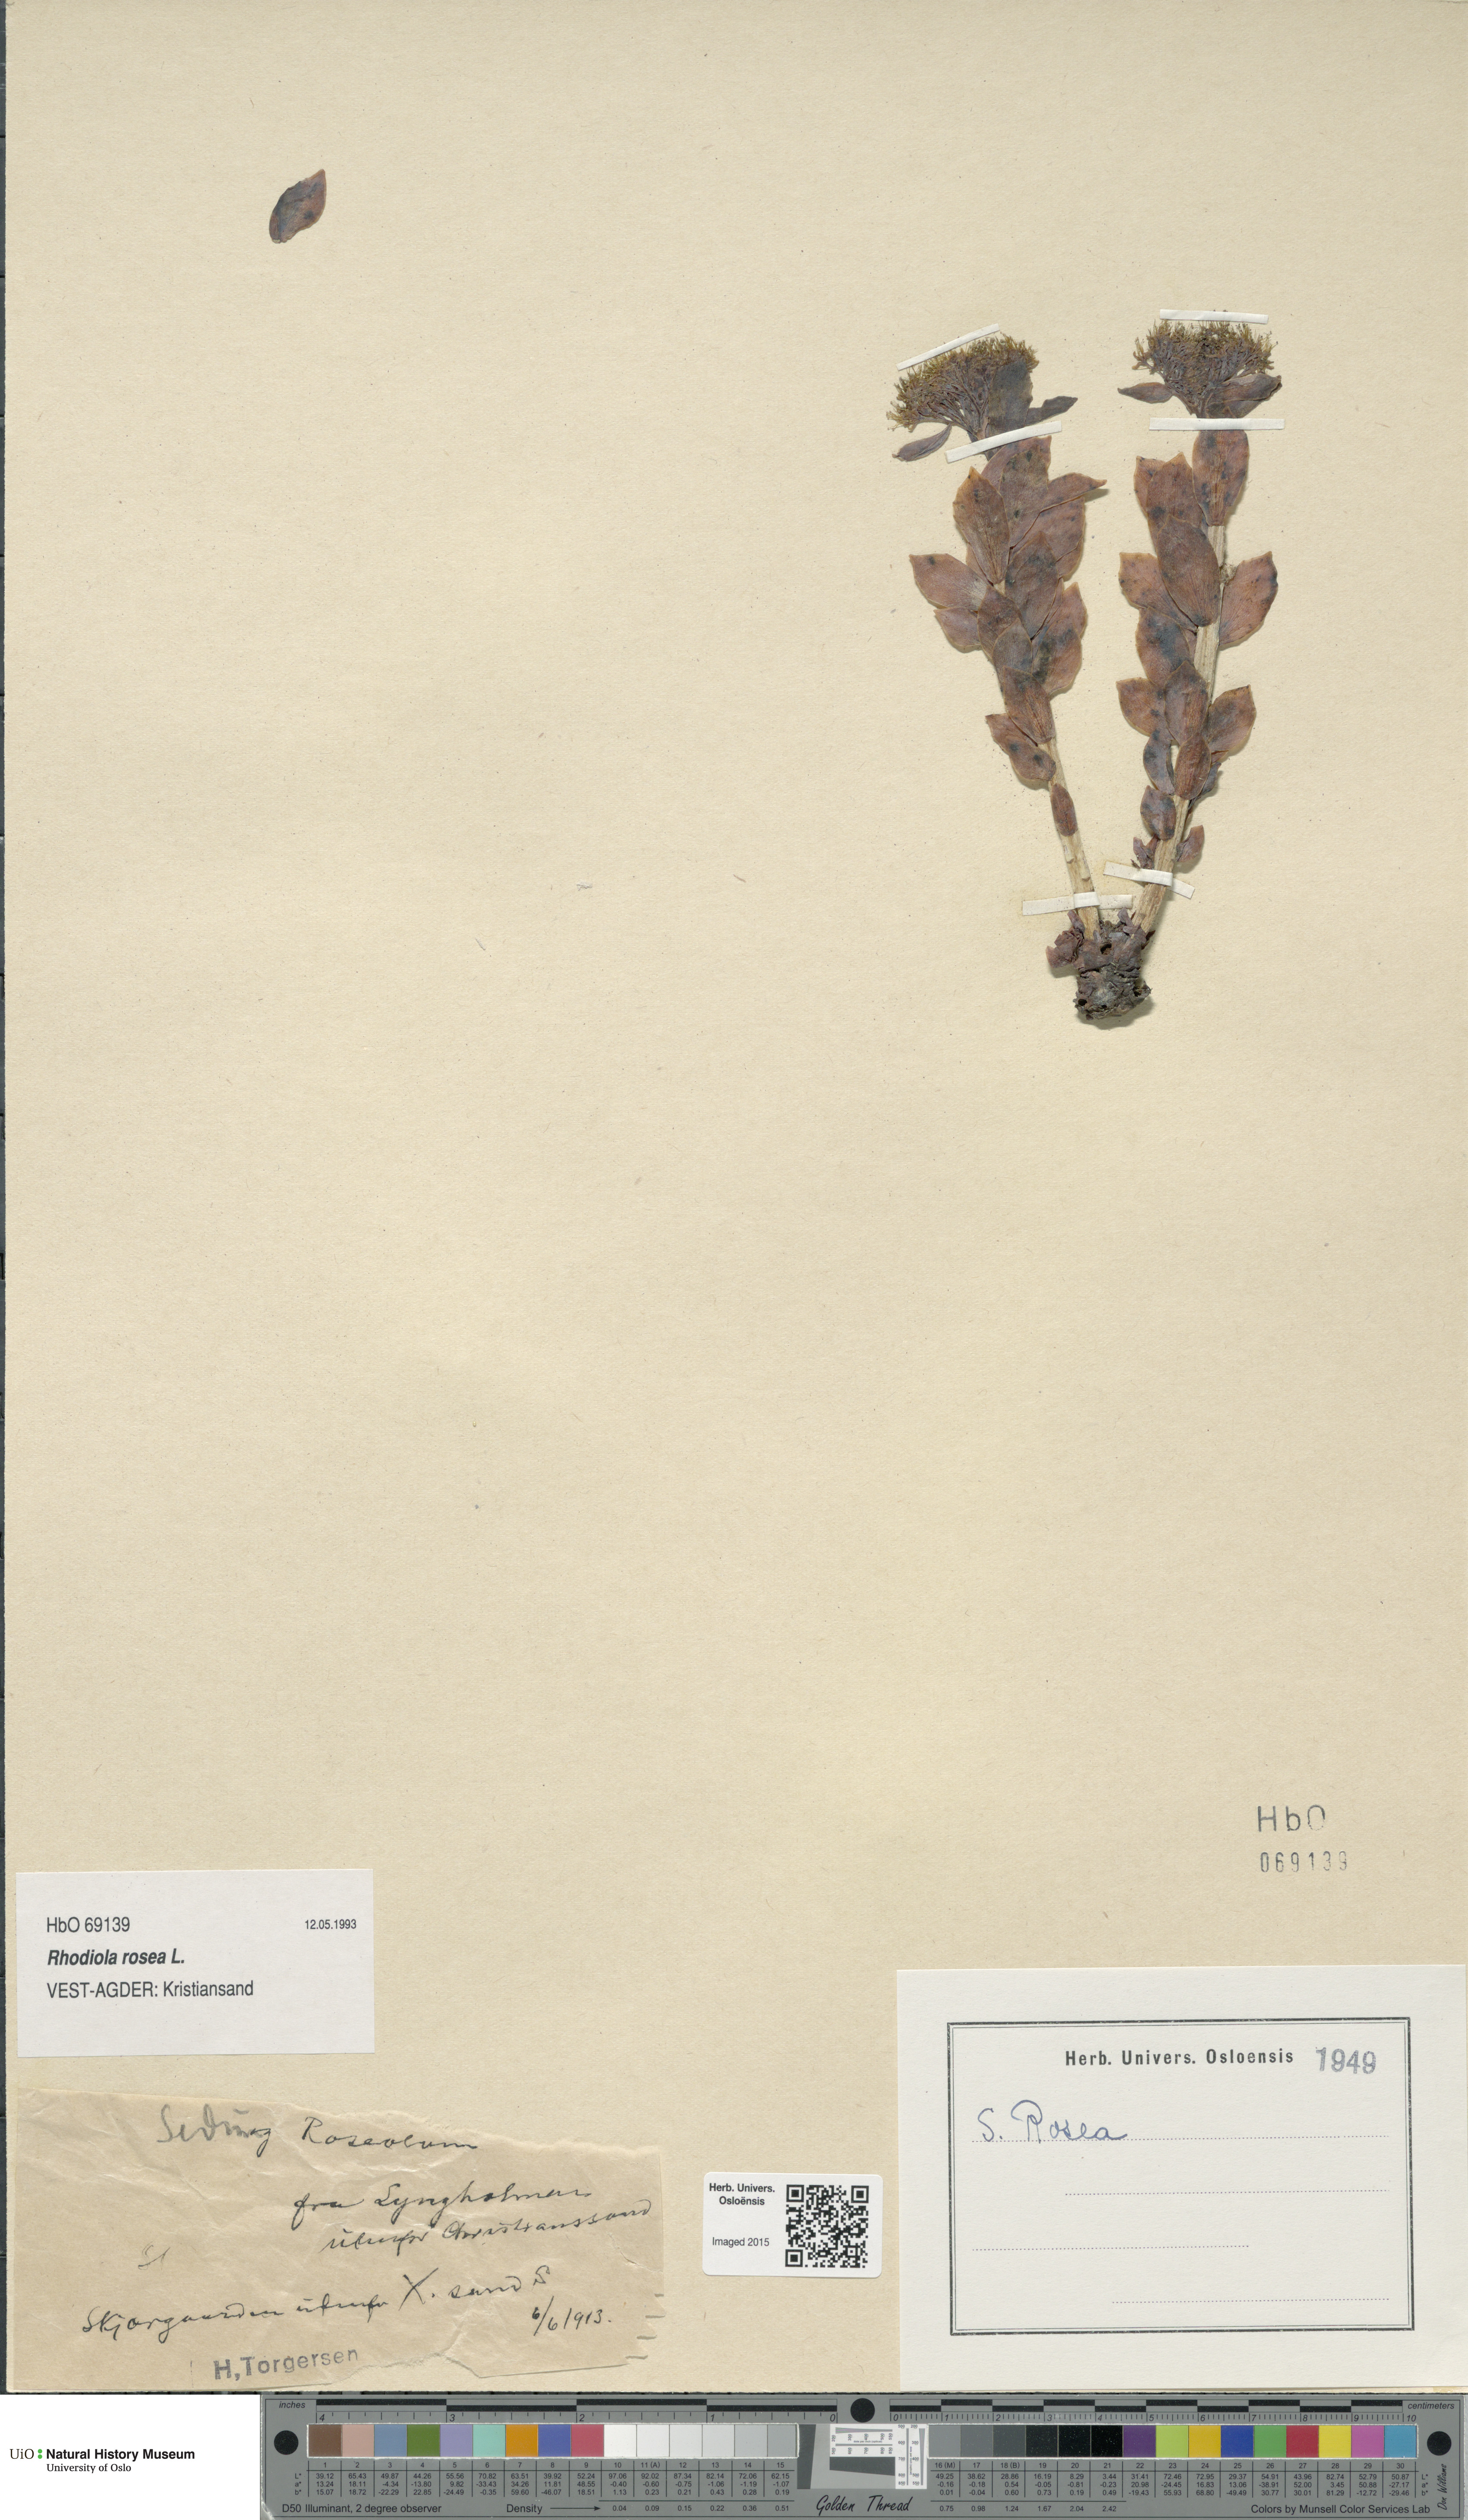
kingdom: Plantae
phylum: Tracheophyta
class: Magnoliopsida
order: Saxifragales
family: Crassulaceae
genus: Rhodiola
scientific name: Rhodiola rosea
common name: Roseroot
